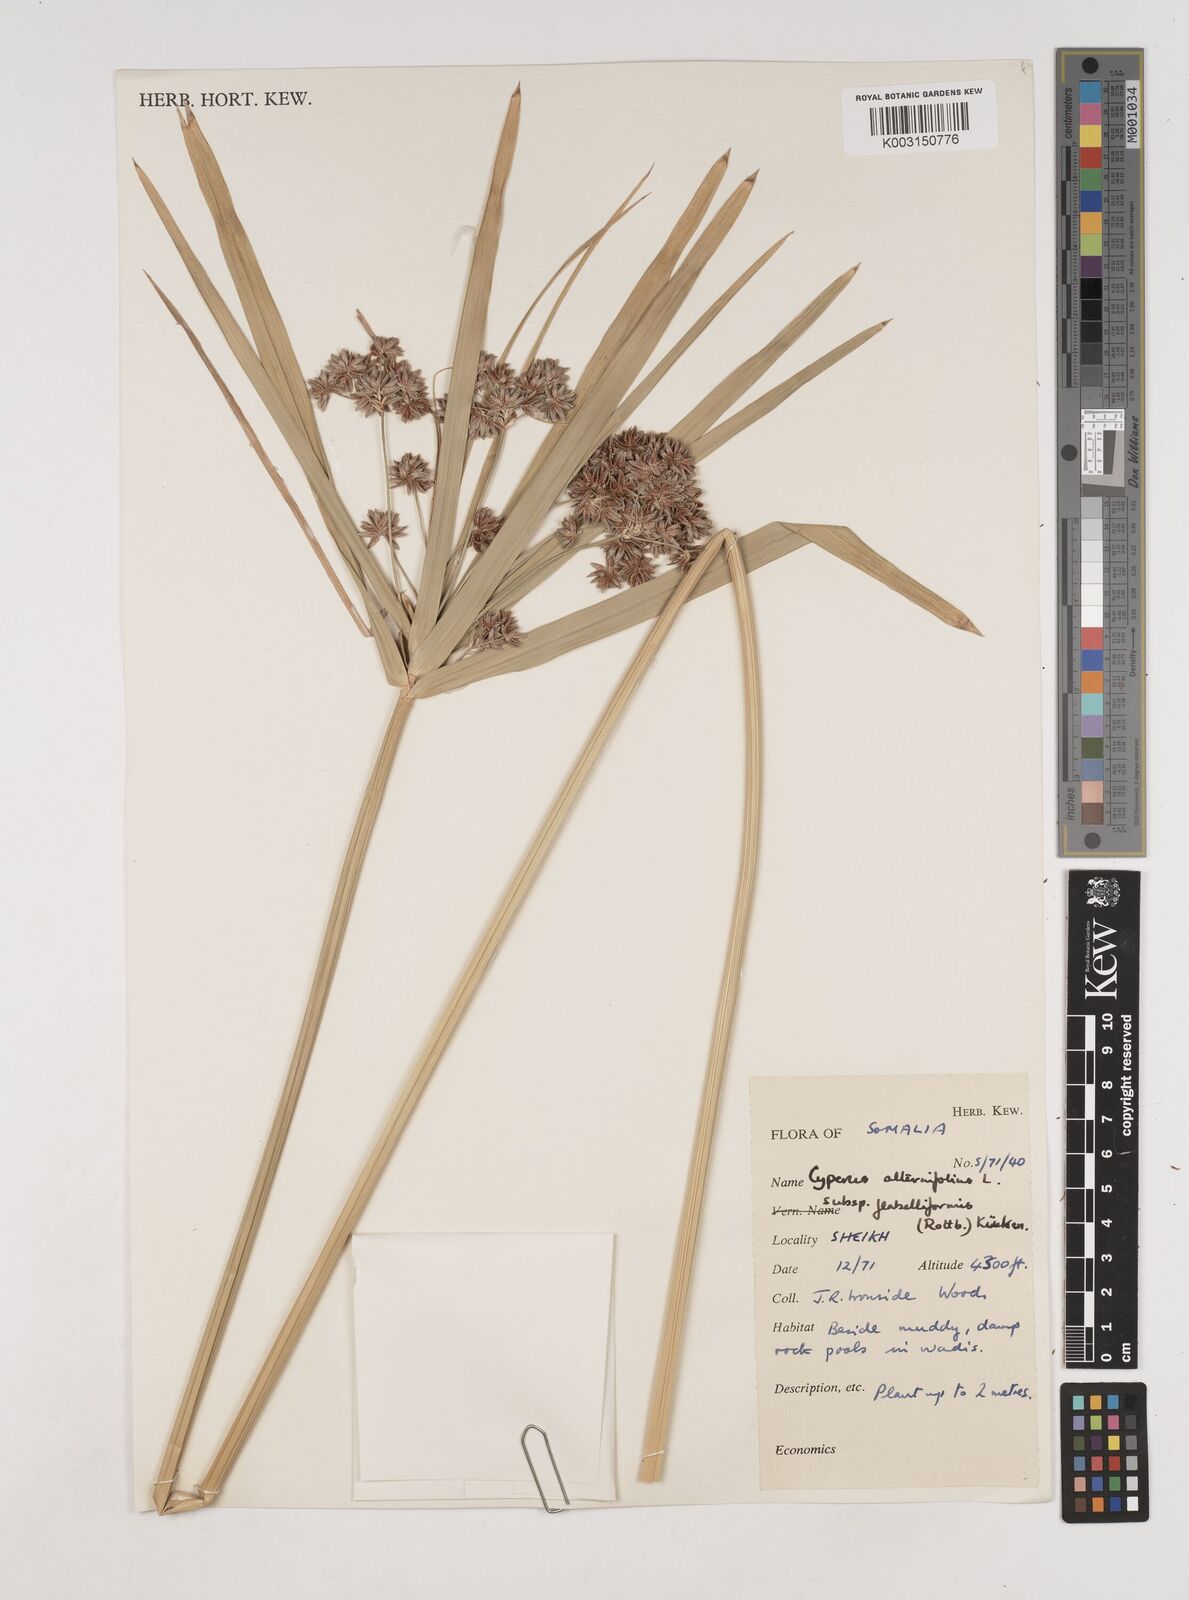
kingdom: Plantae
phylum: Tracheophyta
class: Liliopsida
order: Poales
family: Cyperaceae
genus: Cyperus
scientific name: Cyperus alternifolius
